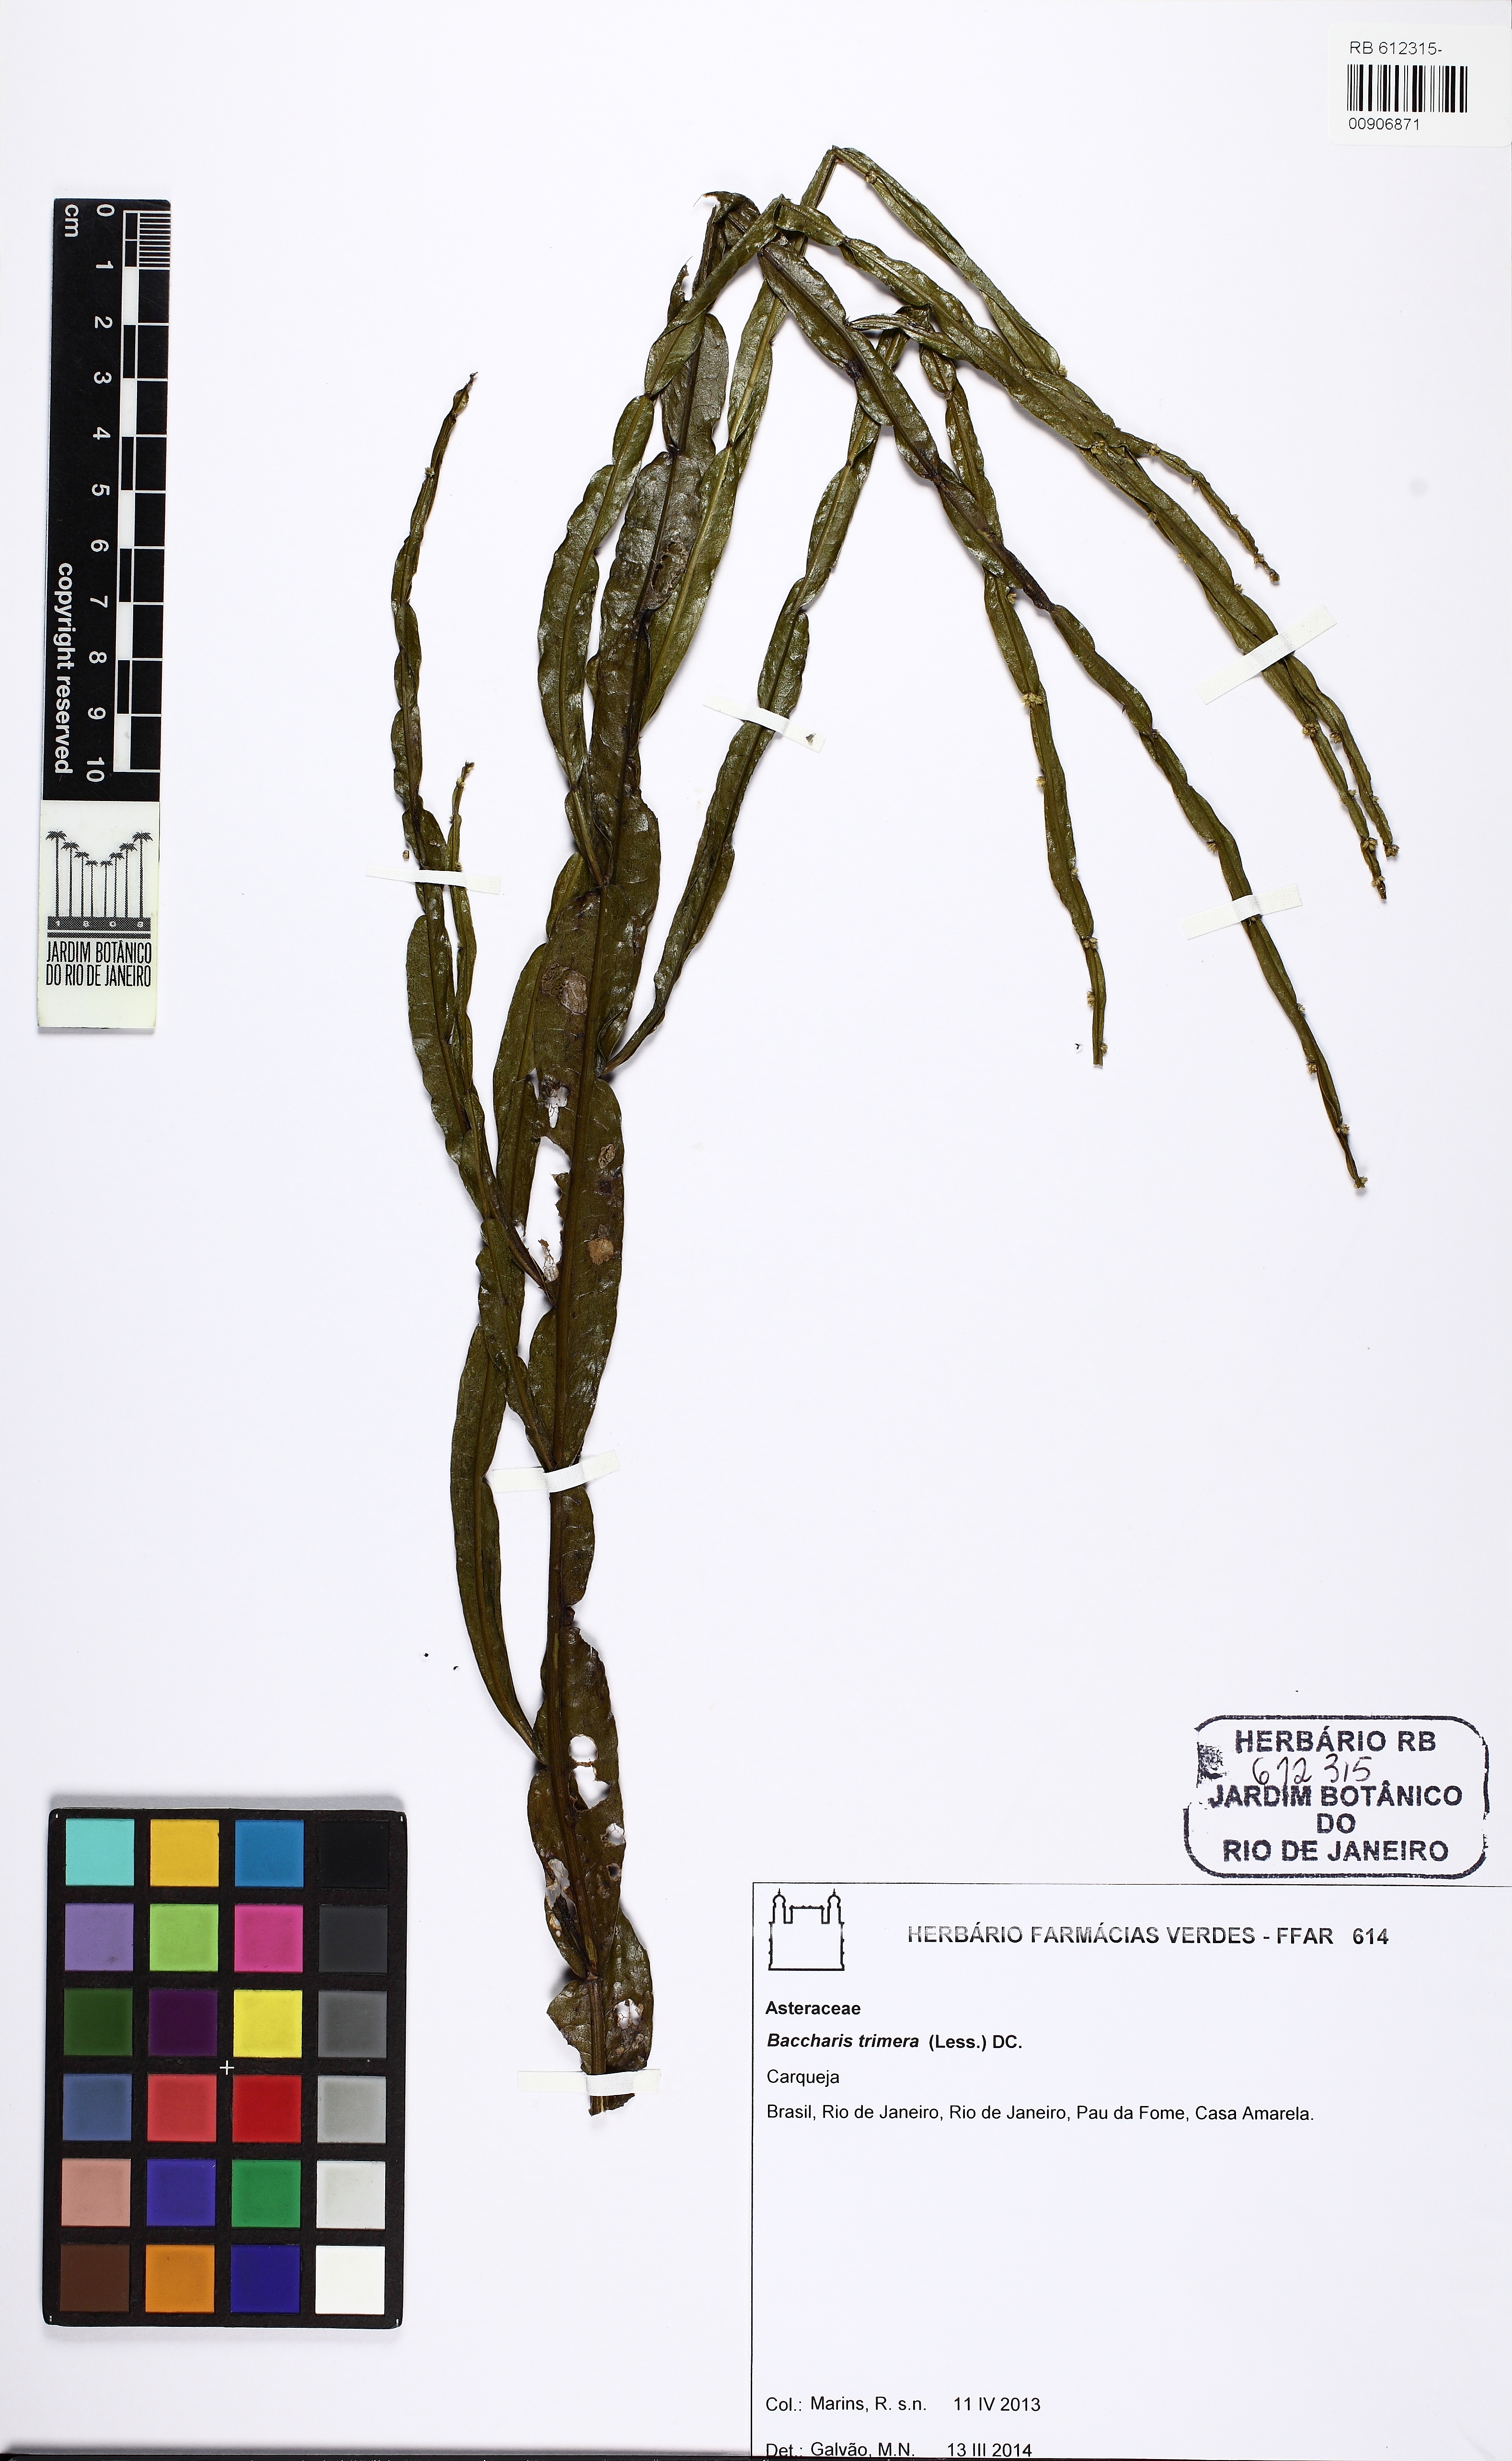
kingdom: Plantae
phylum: Tracheophyta
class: Magnoliopsida
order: Asterales
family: Asteraceae
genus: Baccharis
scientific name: Baccharis trimera
